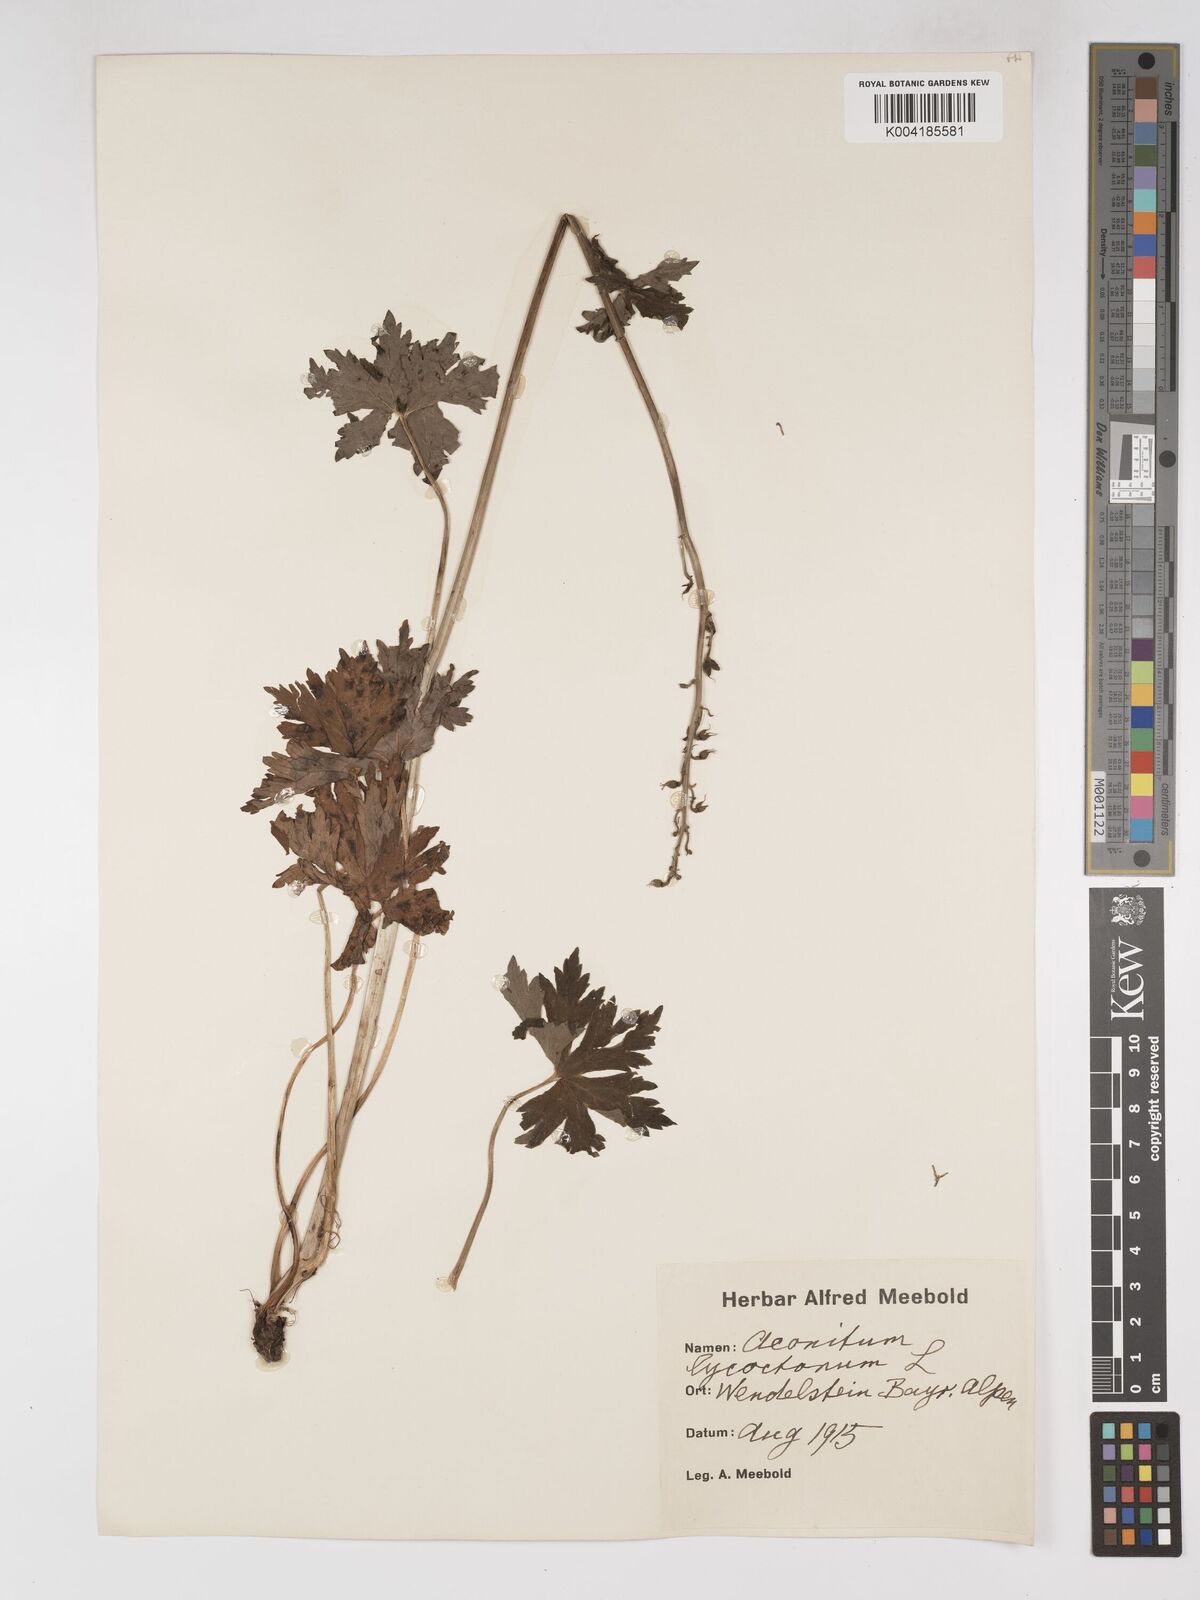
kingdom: Plantae
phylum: Tracheophyta
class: Magnoliopsida
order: Ranunculales
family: Ranunculaceae
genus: Aconitum
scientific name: Aconitum lycoctonum
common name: Wolf's-bane
